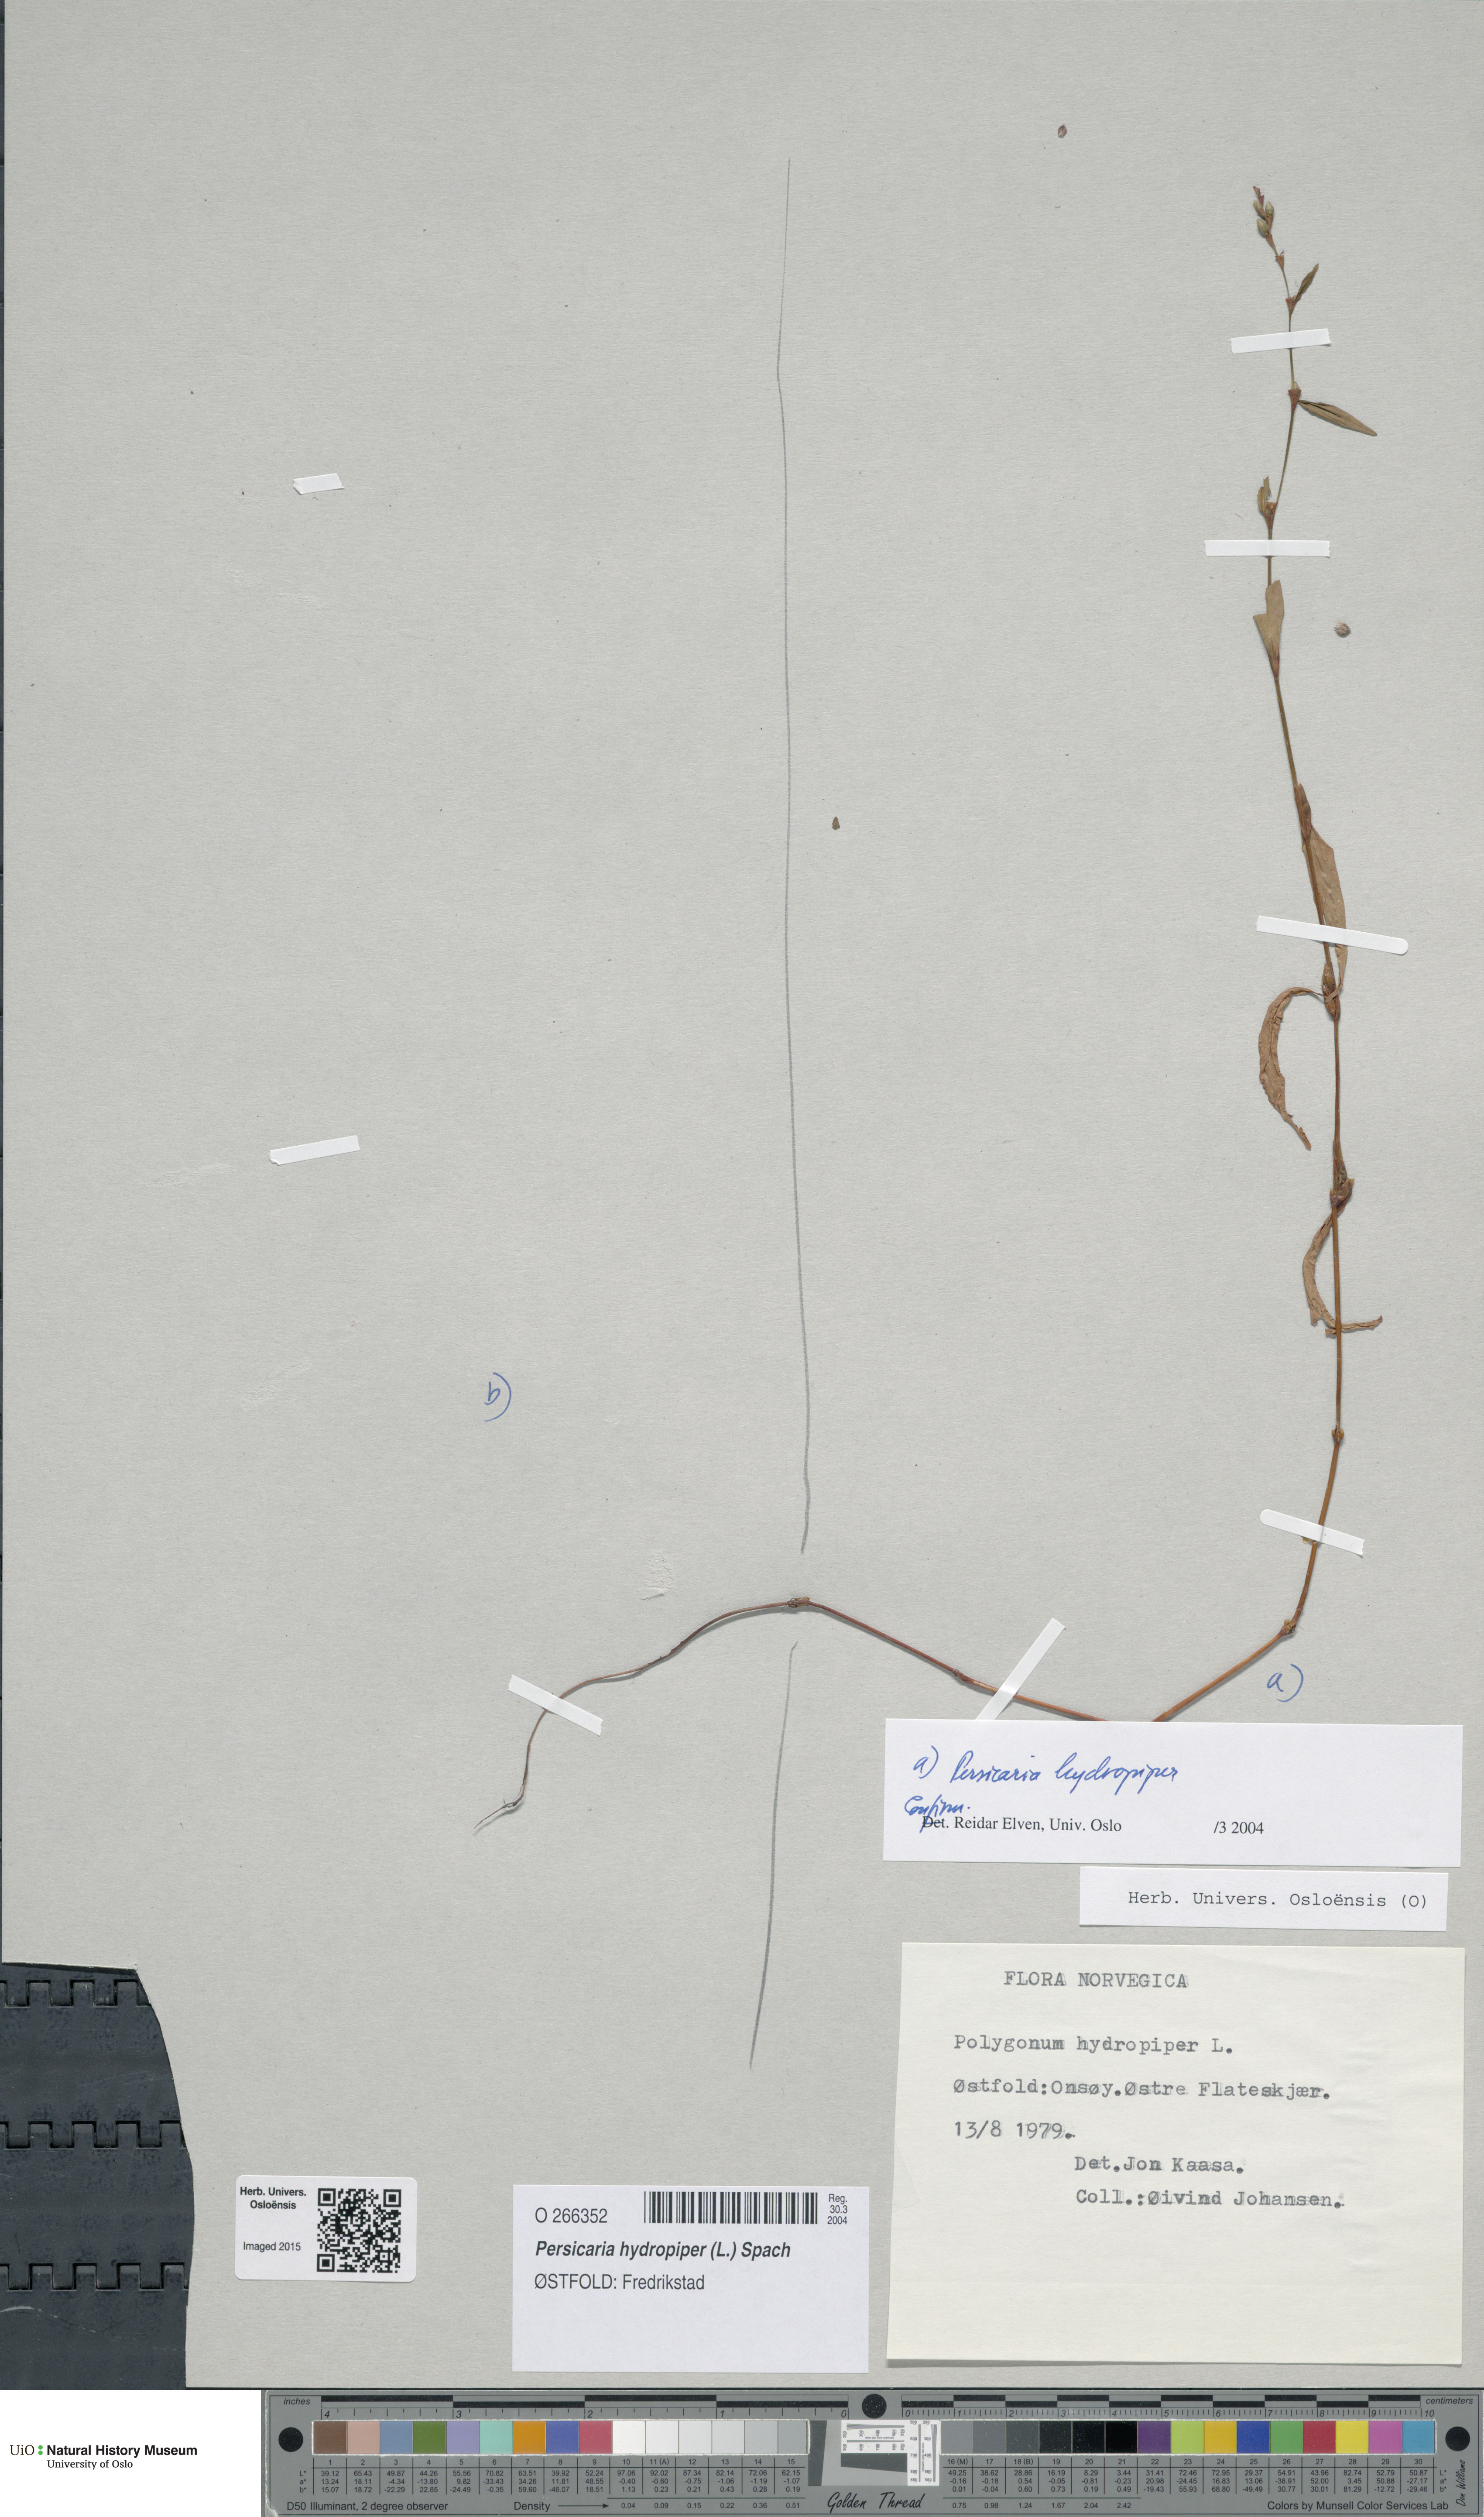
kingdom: Plantae
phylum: Tracheophyta
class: Magnoliopsida
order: Caryophyllales
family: Polygonaceae
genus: Persicaria
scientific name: Persicaria hydropiper
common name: Water-pepper
